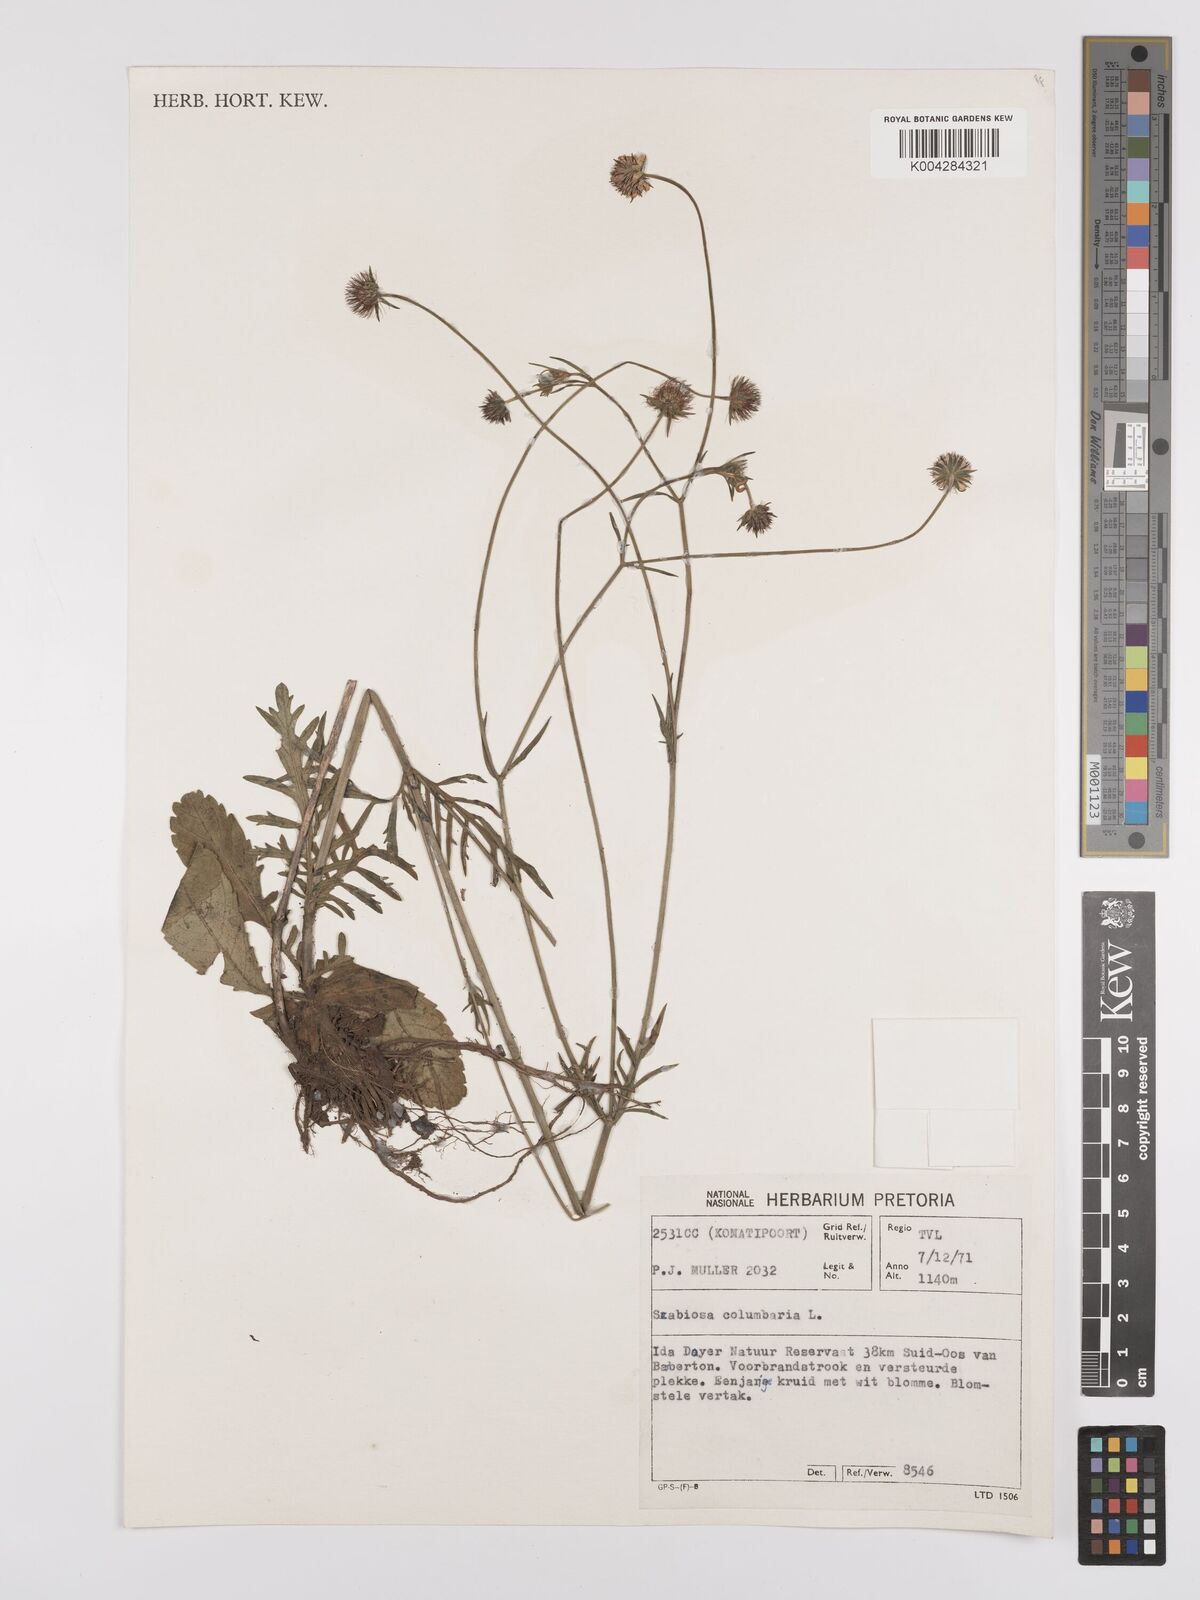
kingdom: Plantae
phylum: Tracheophyta
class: Magnoliopsida
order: Dipsacales
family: Caprifoliaceae
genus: Scabiosa
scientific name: Scabiosa austroafricana
